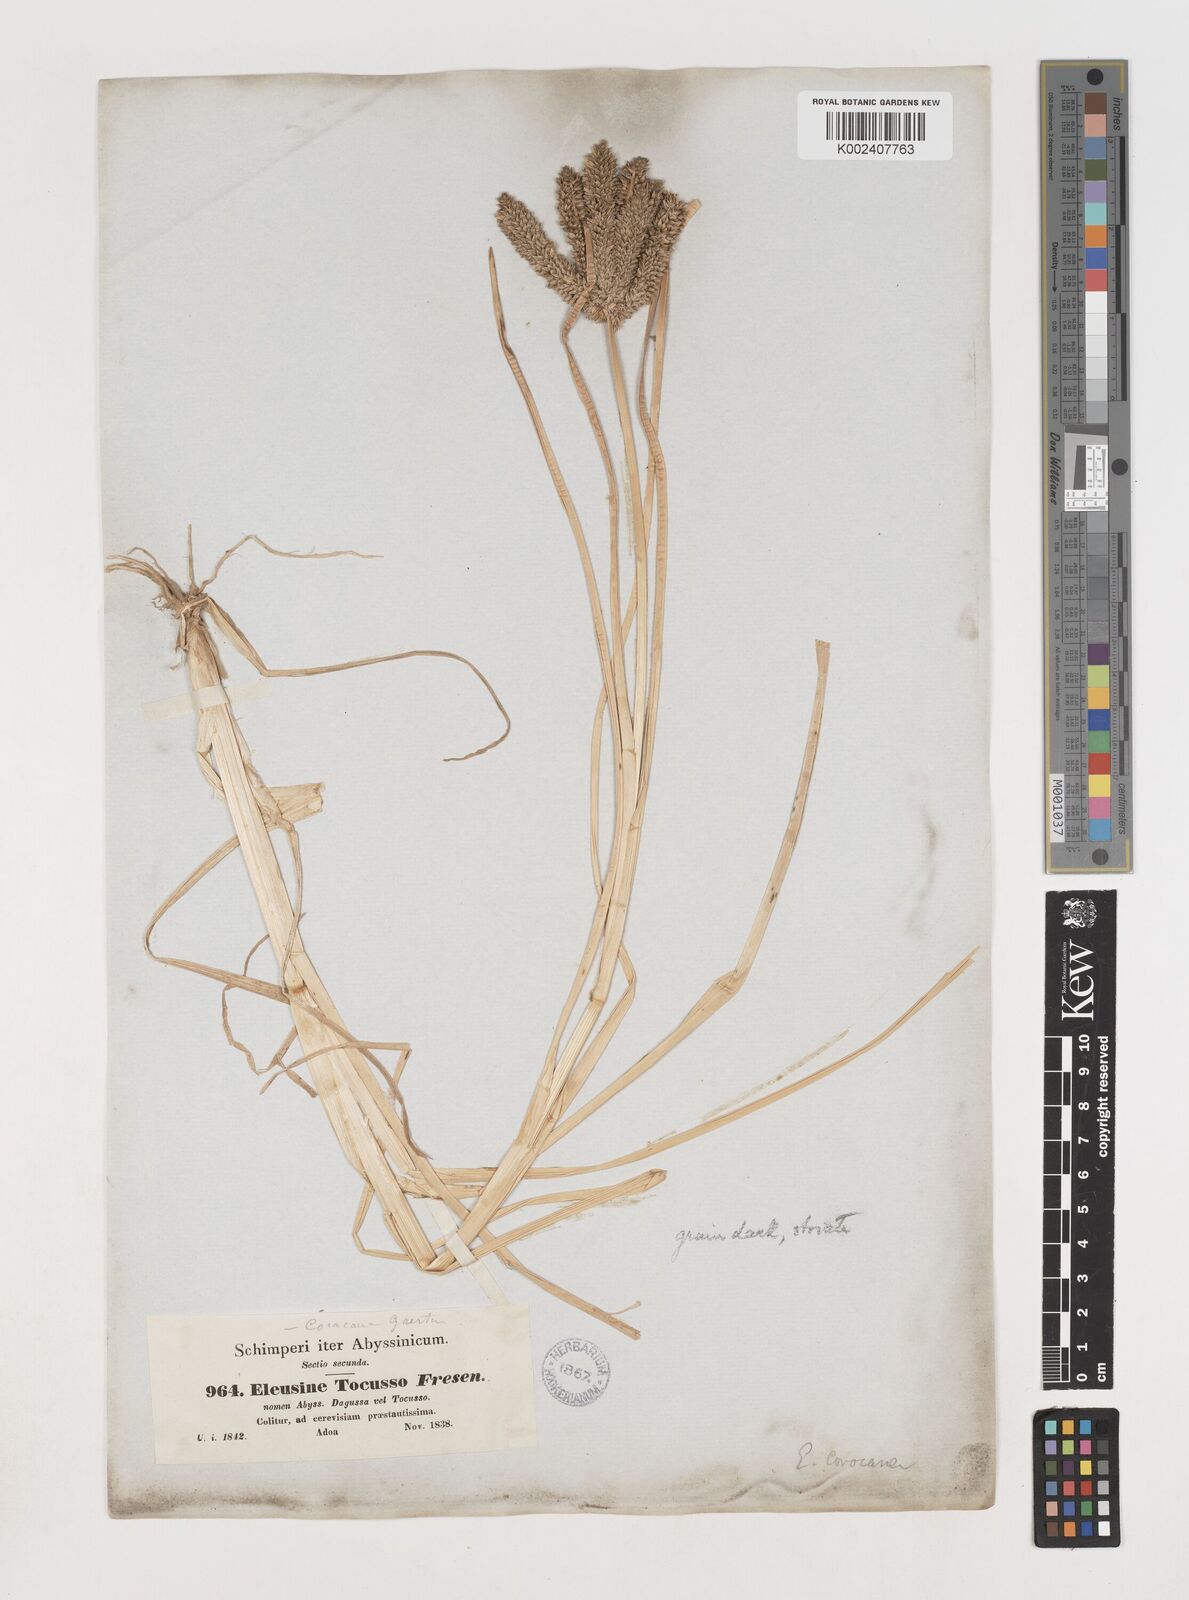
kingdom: Plantae
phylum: Tracheophyta
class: Liliopsida
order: Poales
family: Poaceae
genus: Eleusine
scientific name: Eleusine coracana
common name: Finger millet
